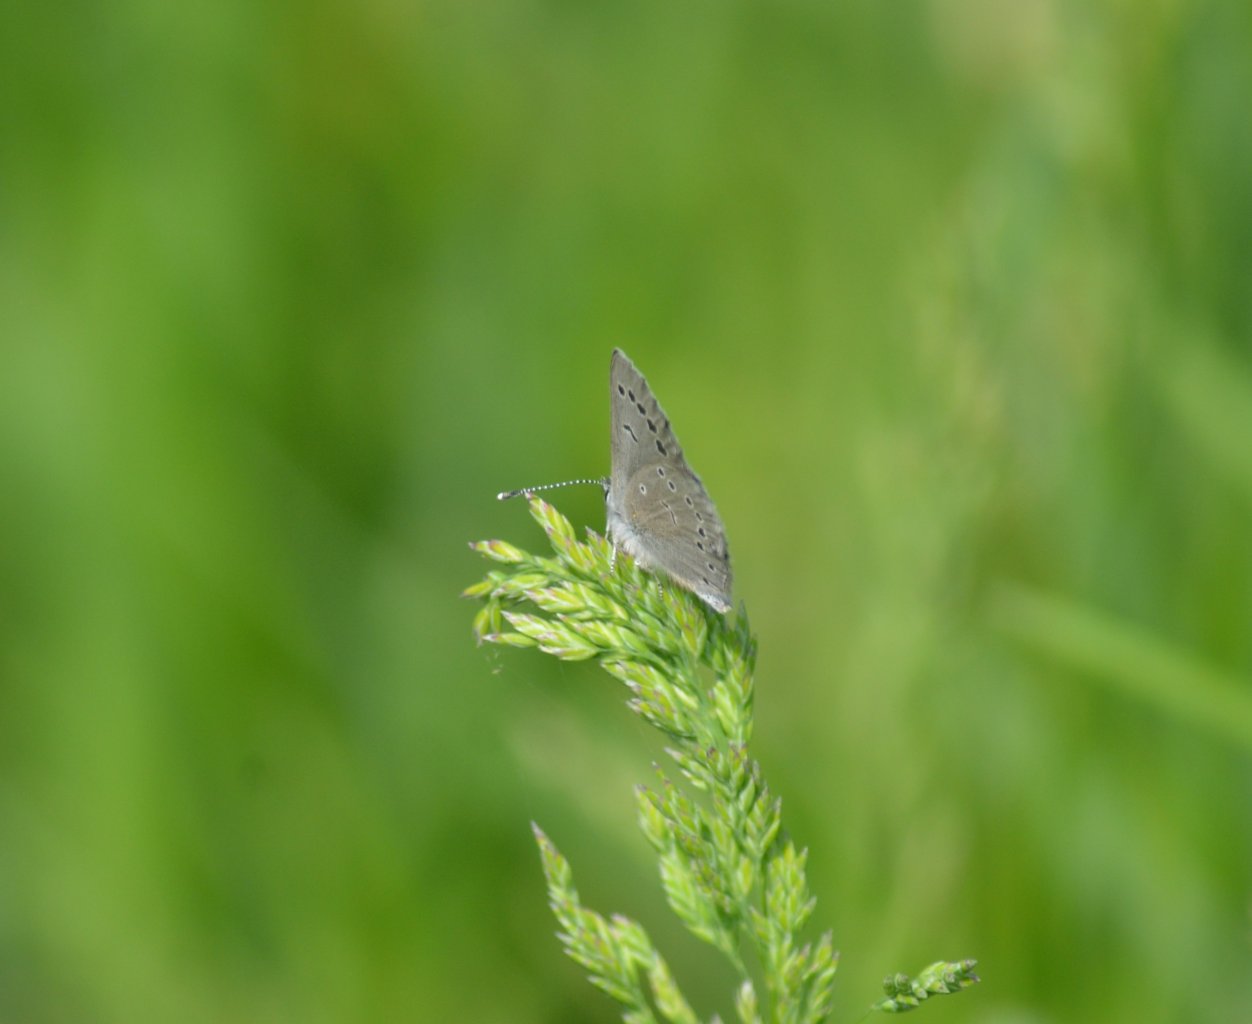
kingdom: Animalia
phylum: Arthropoda
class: Insecta
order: Lepidoptera
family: Lycaenidae
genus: Glaucopsyche
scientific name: Glaucopsyche lygdamus
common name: Silvery Blue
